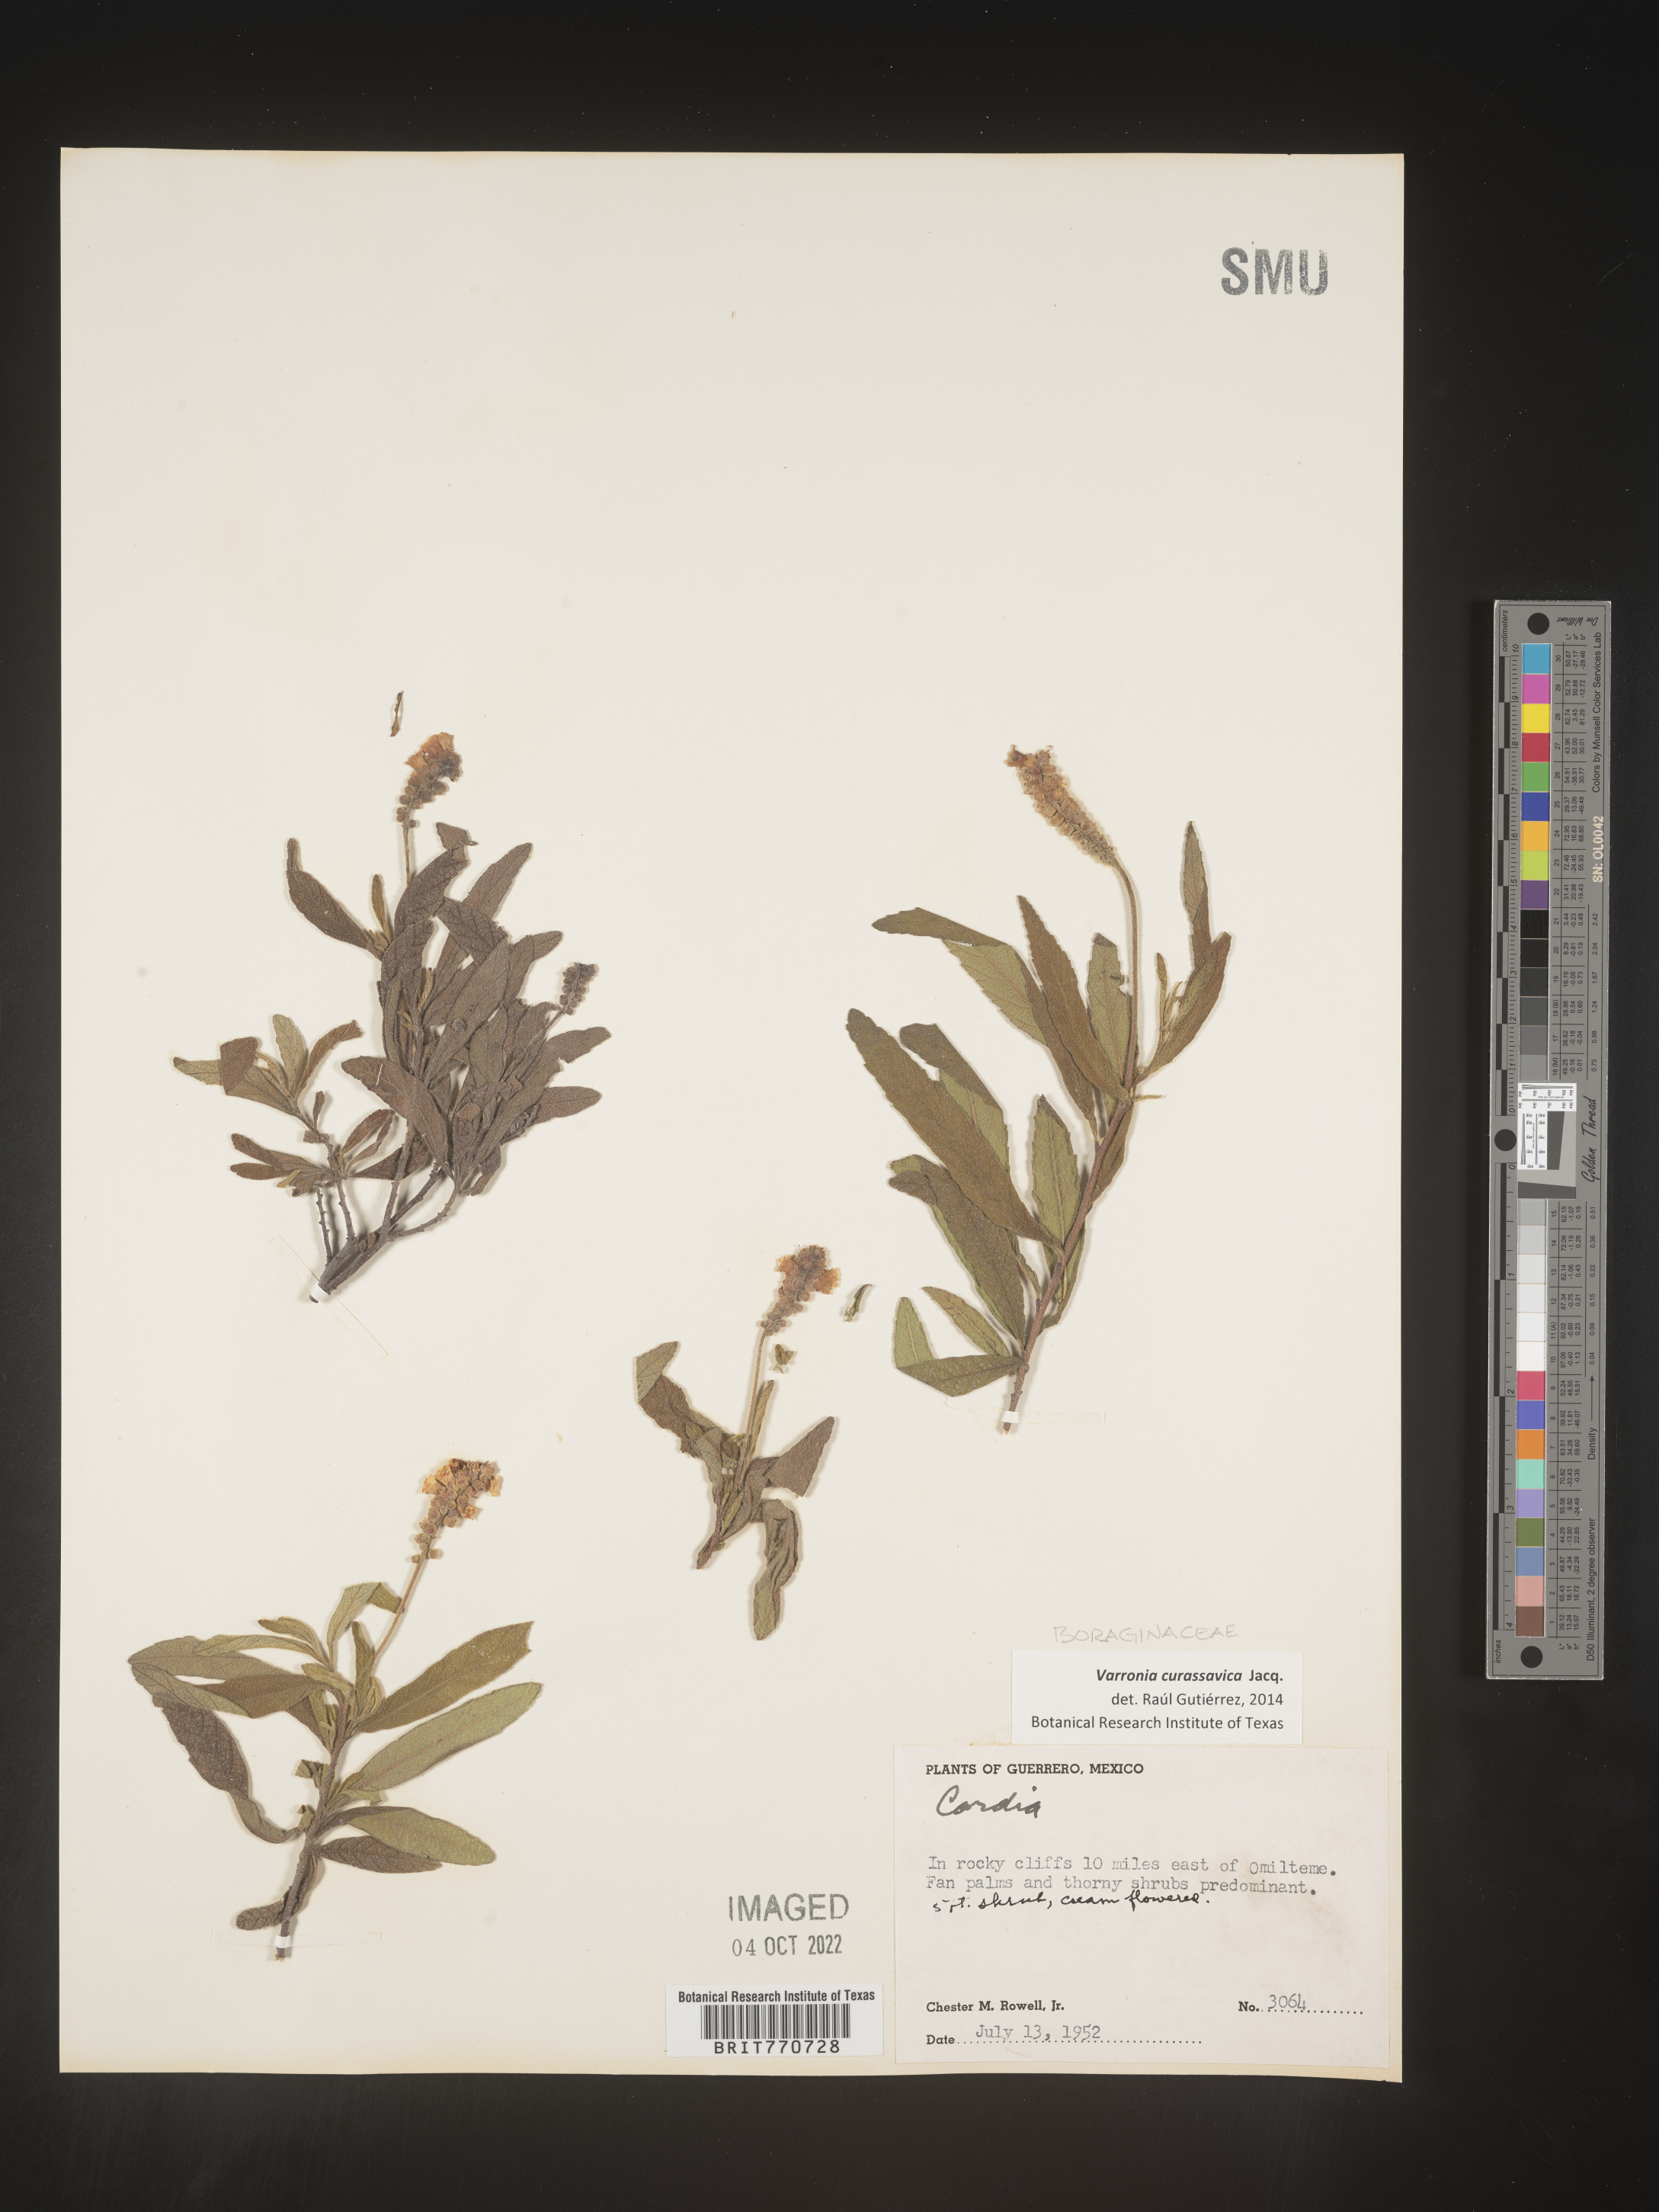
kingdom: Plantae
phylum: Tracheophyta
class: Magnoliopsida
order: Boraginales
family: Cordiaceae
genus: Varronia
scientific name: Varronia
